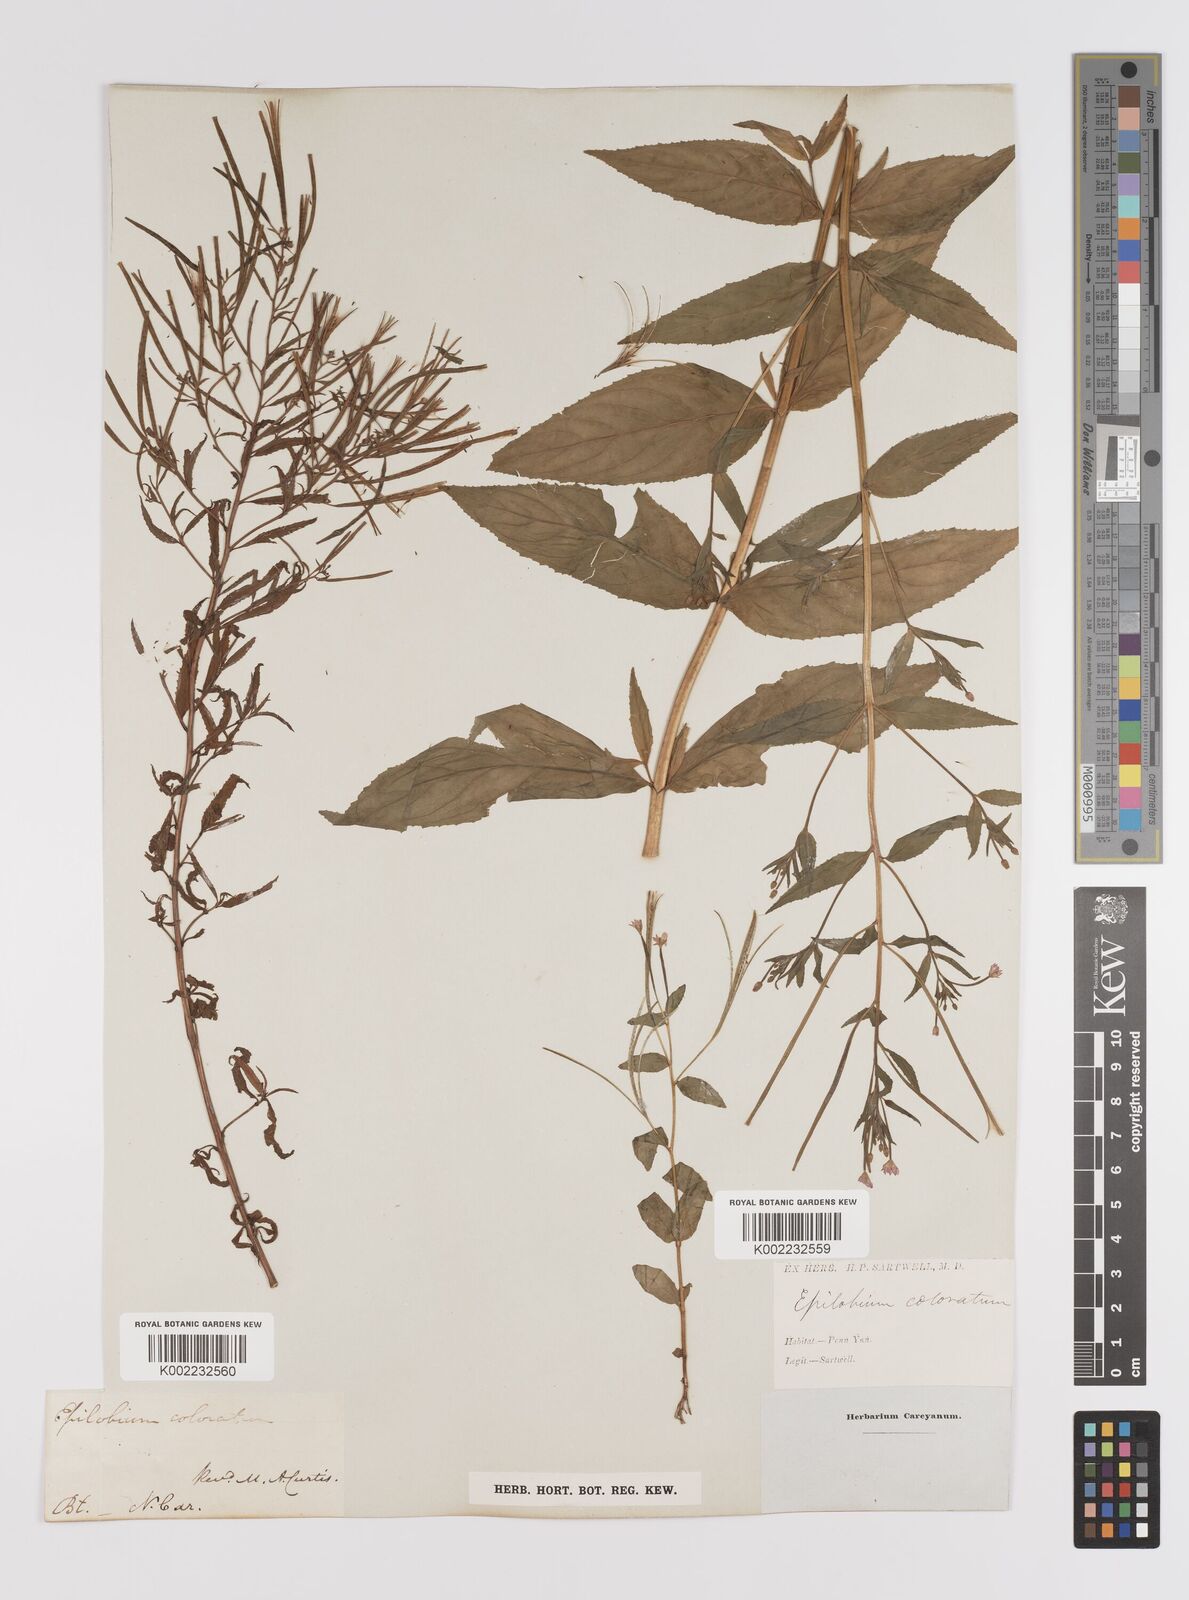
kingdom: Plantae
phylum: Tracheophyta
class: Magnoliopsida
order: Myrtales
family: Onagraceae
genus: Epilobium
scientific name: Epilobium coloratum
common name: Bronze willowherb
